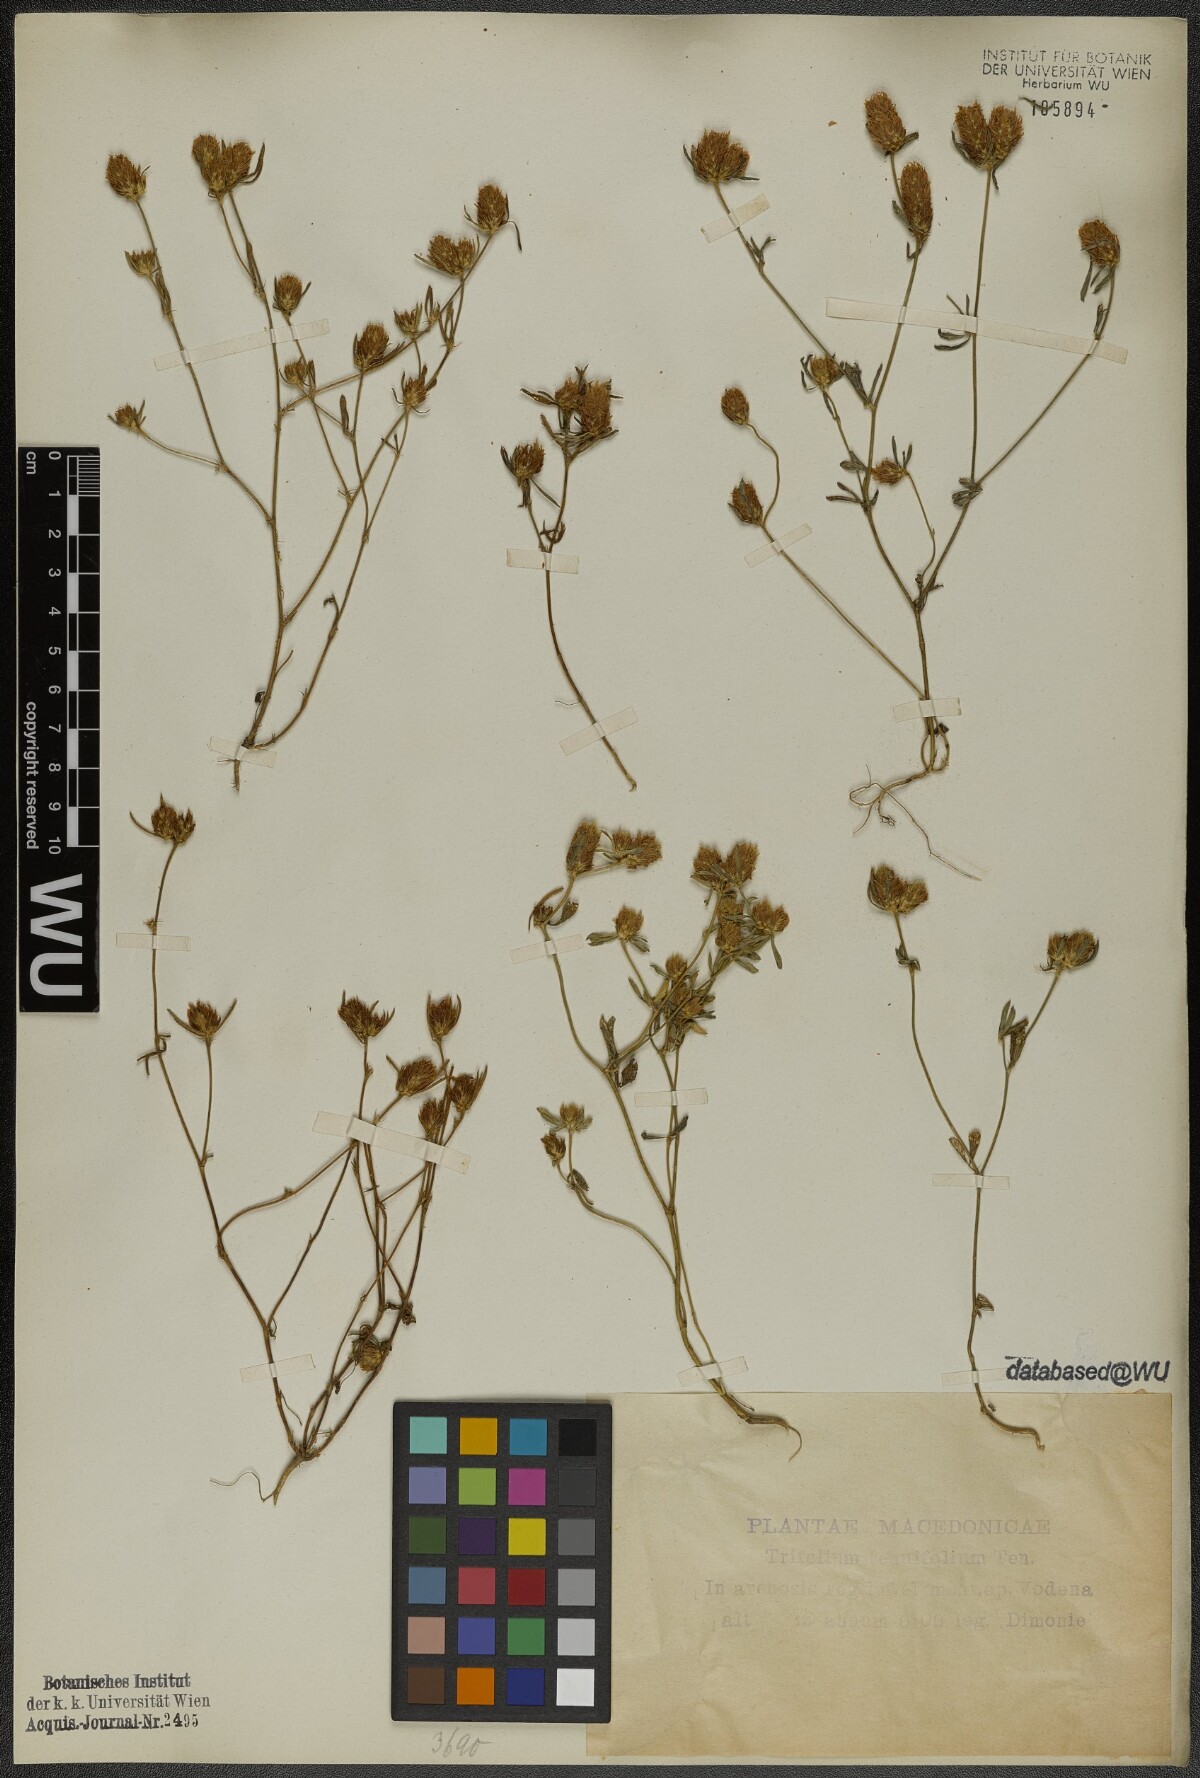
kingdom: Plantae
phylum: Tracheophyta
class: Magnoliopsida
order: Fabales
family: Fabaceae
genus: Trifolium
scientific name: Trifolium tenuifolium
